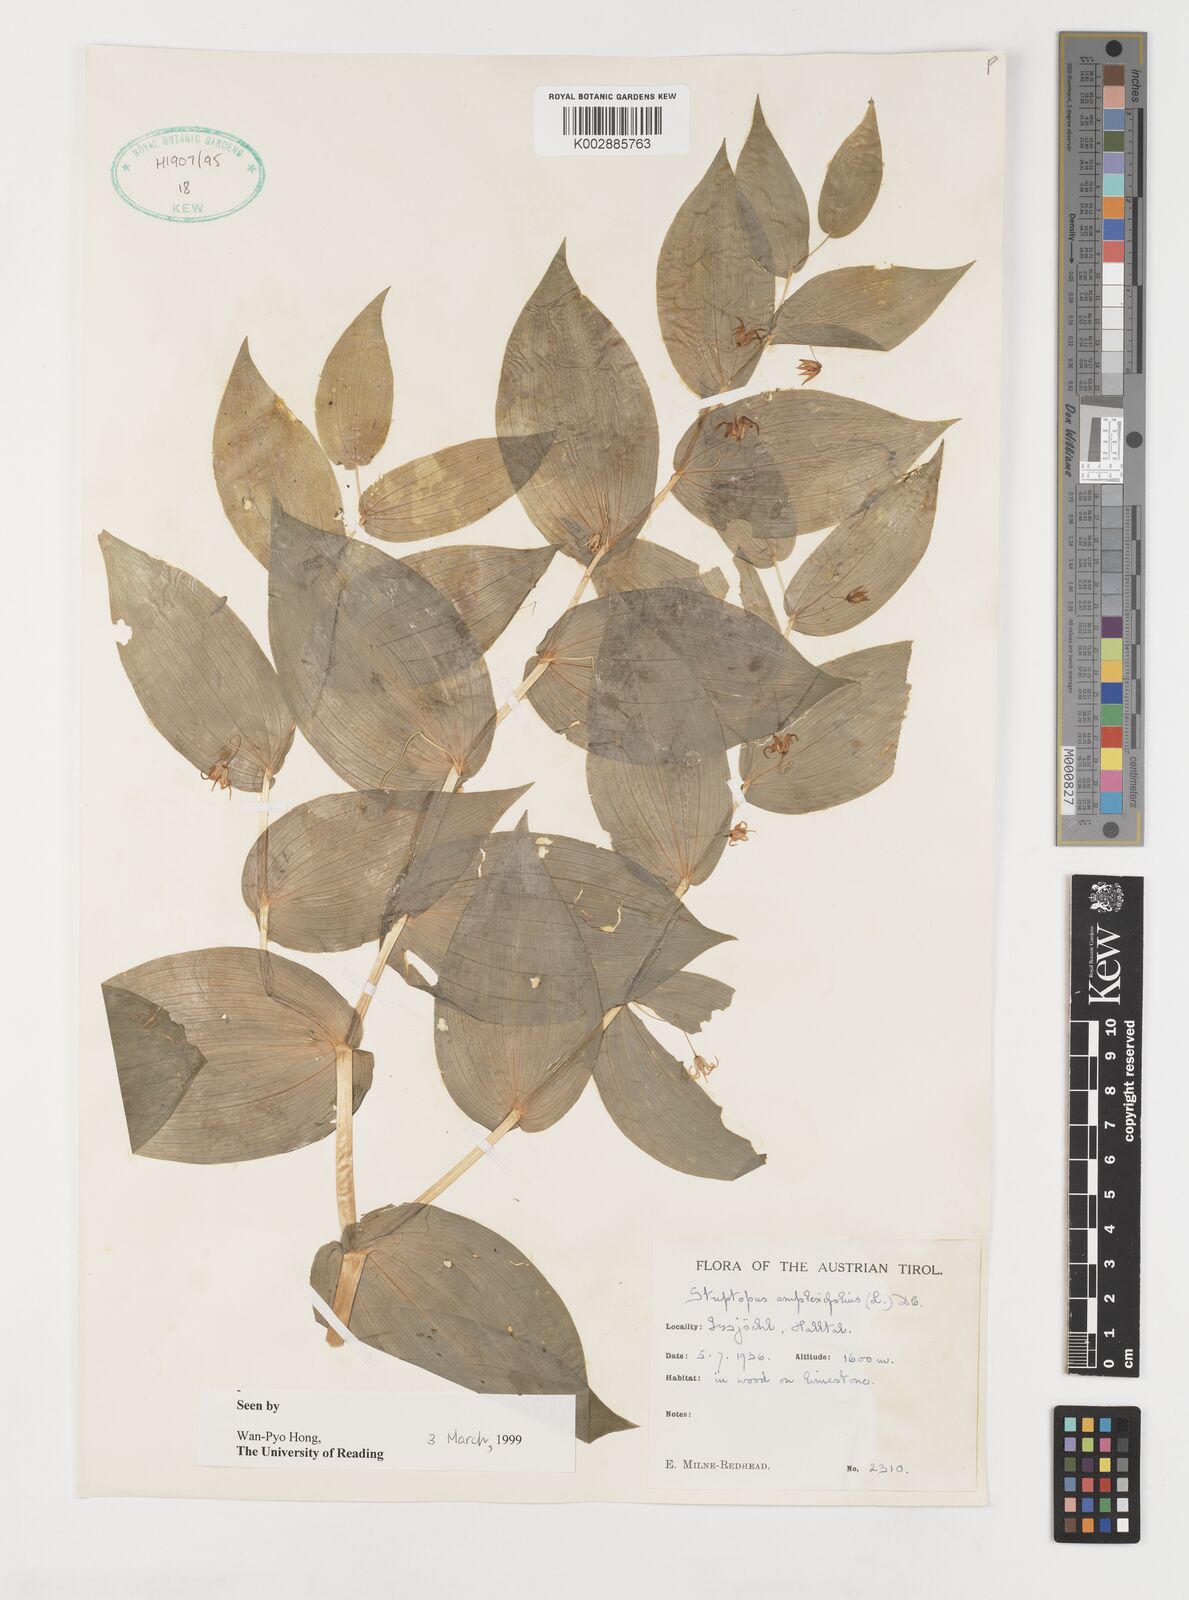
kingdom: Plantae
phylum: Tracheophyta
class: Liliopsida
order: Liliales
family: Liliaceae
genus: Streptopus
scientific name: Streptopus amplexifolius
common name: Clasp twisted stalk
